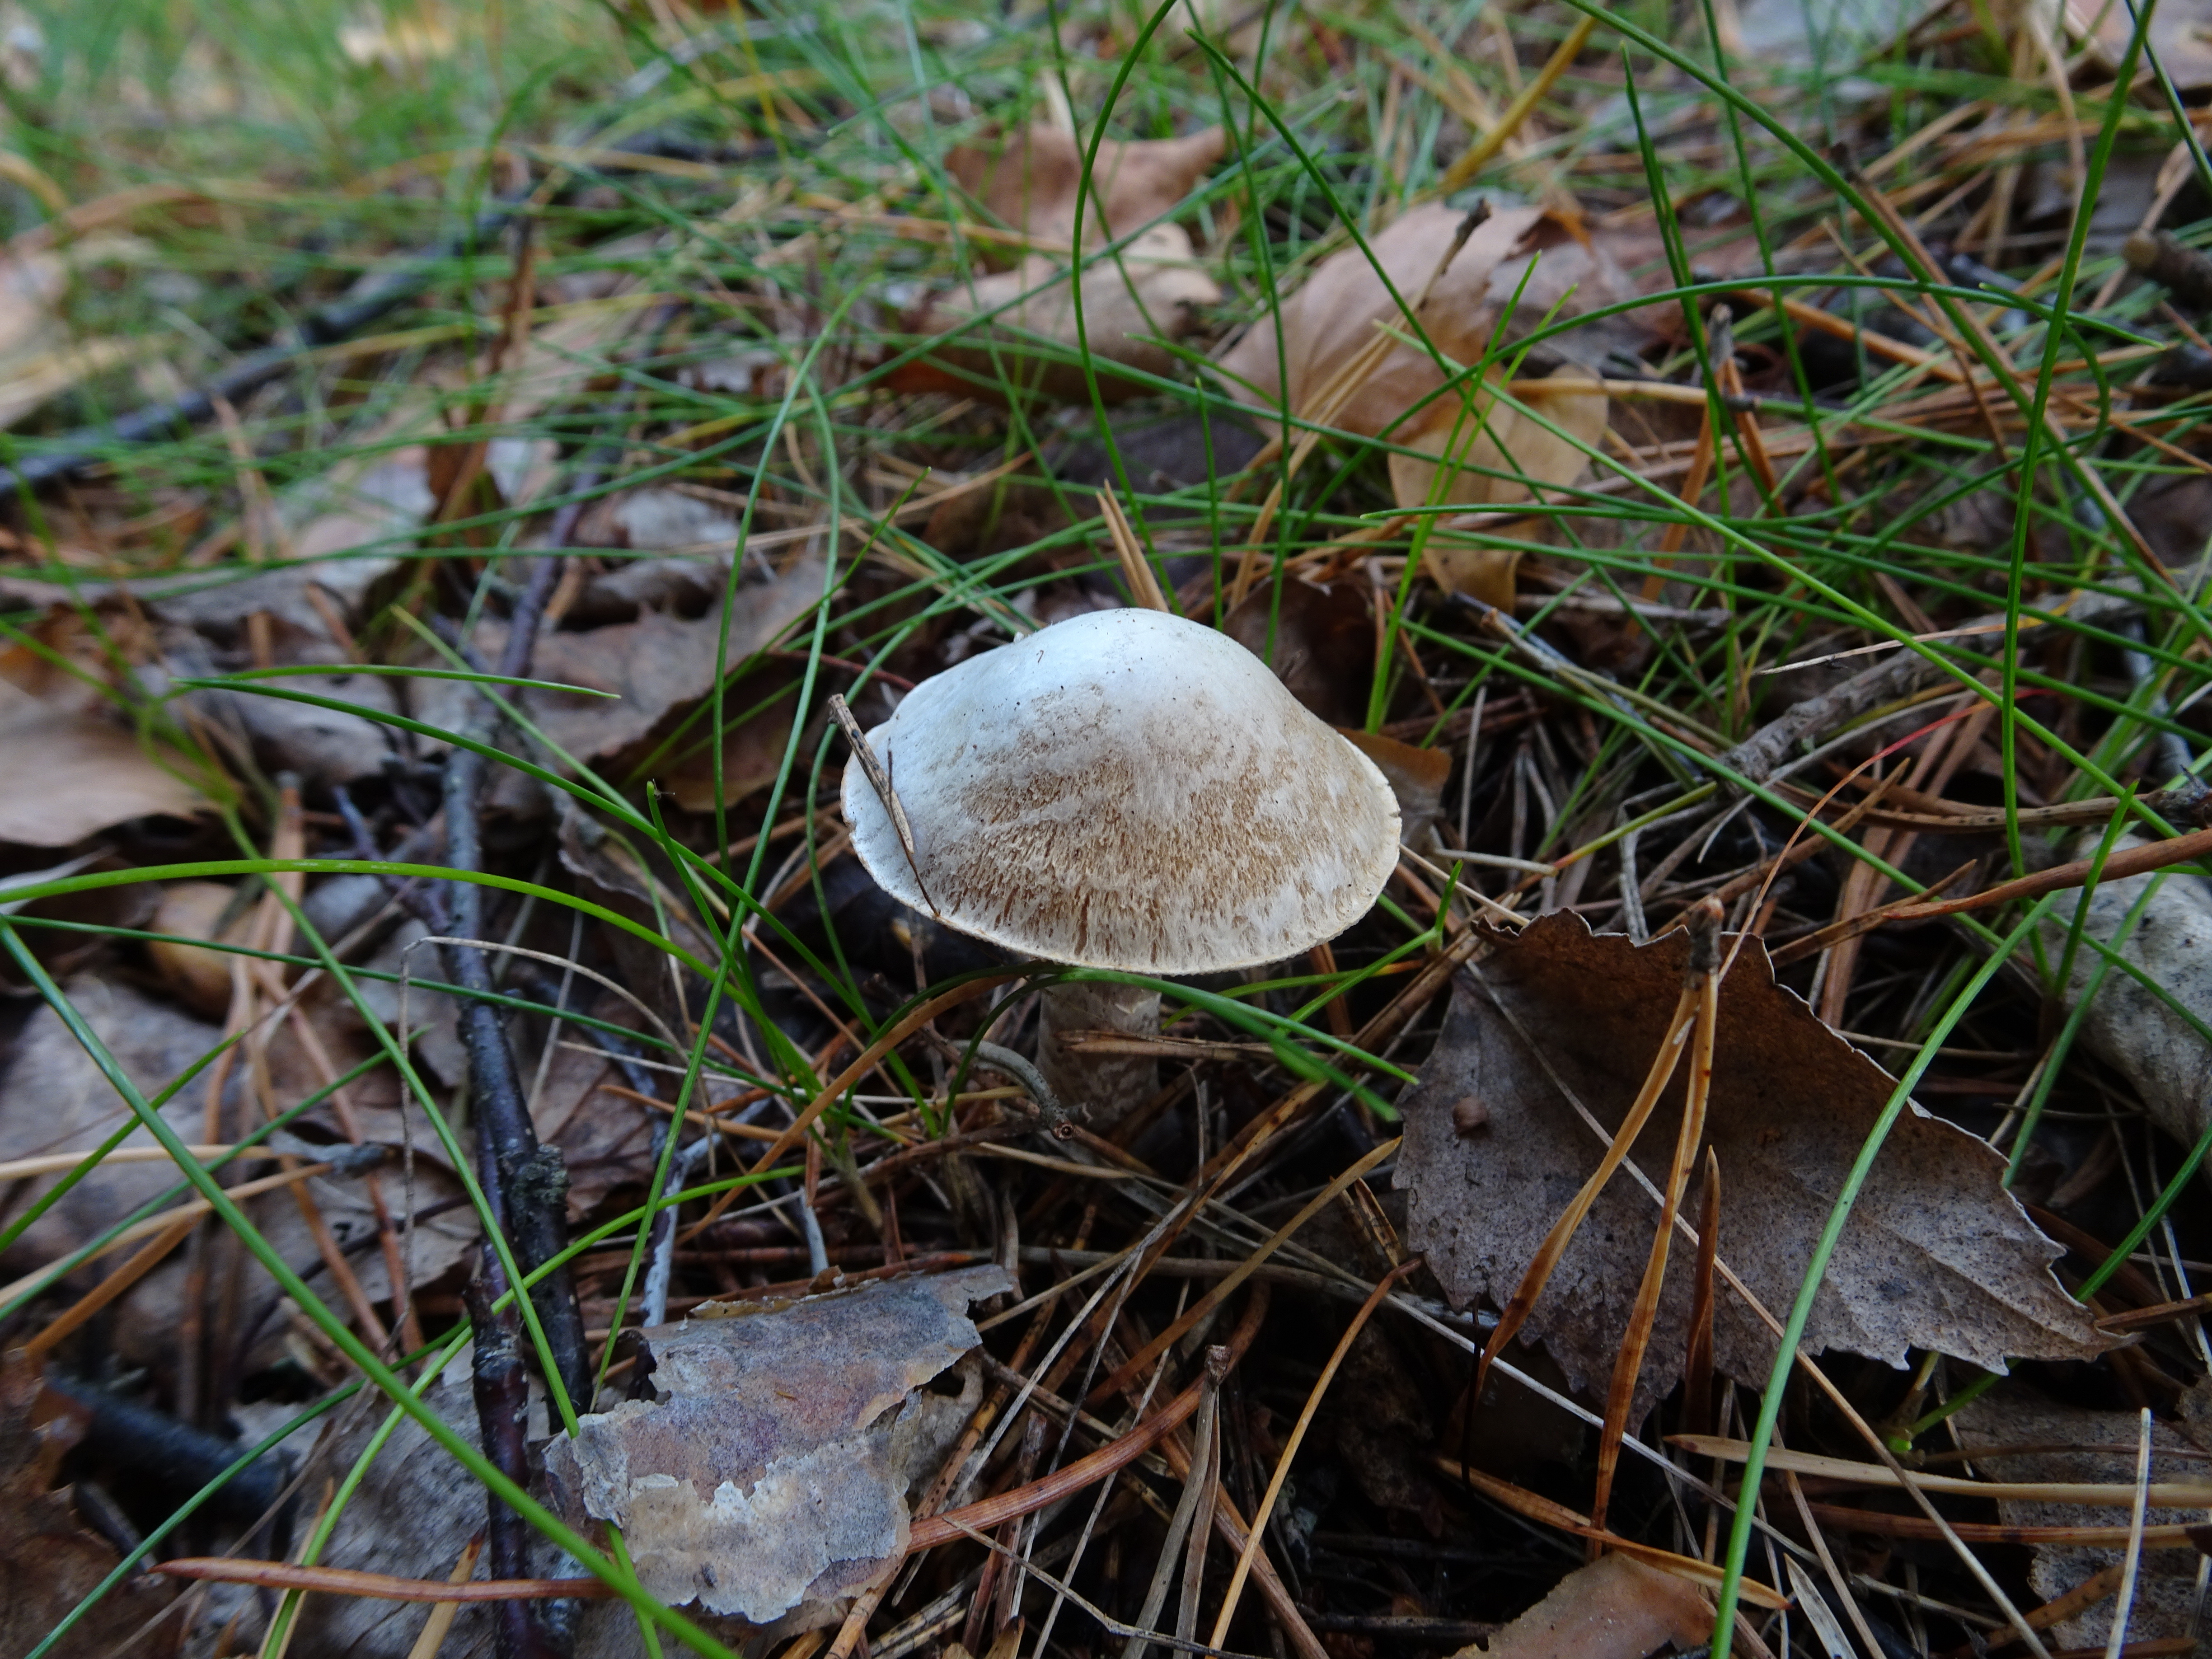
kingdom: Fungi
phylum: Basidiomycota
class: Agaricomycetes
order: Agaricales
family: Cortinariaceae
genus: Cortinarius
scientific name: Cortinarius alboviolaceus
